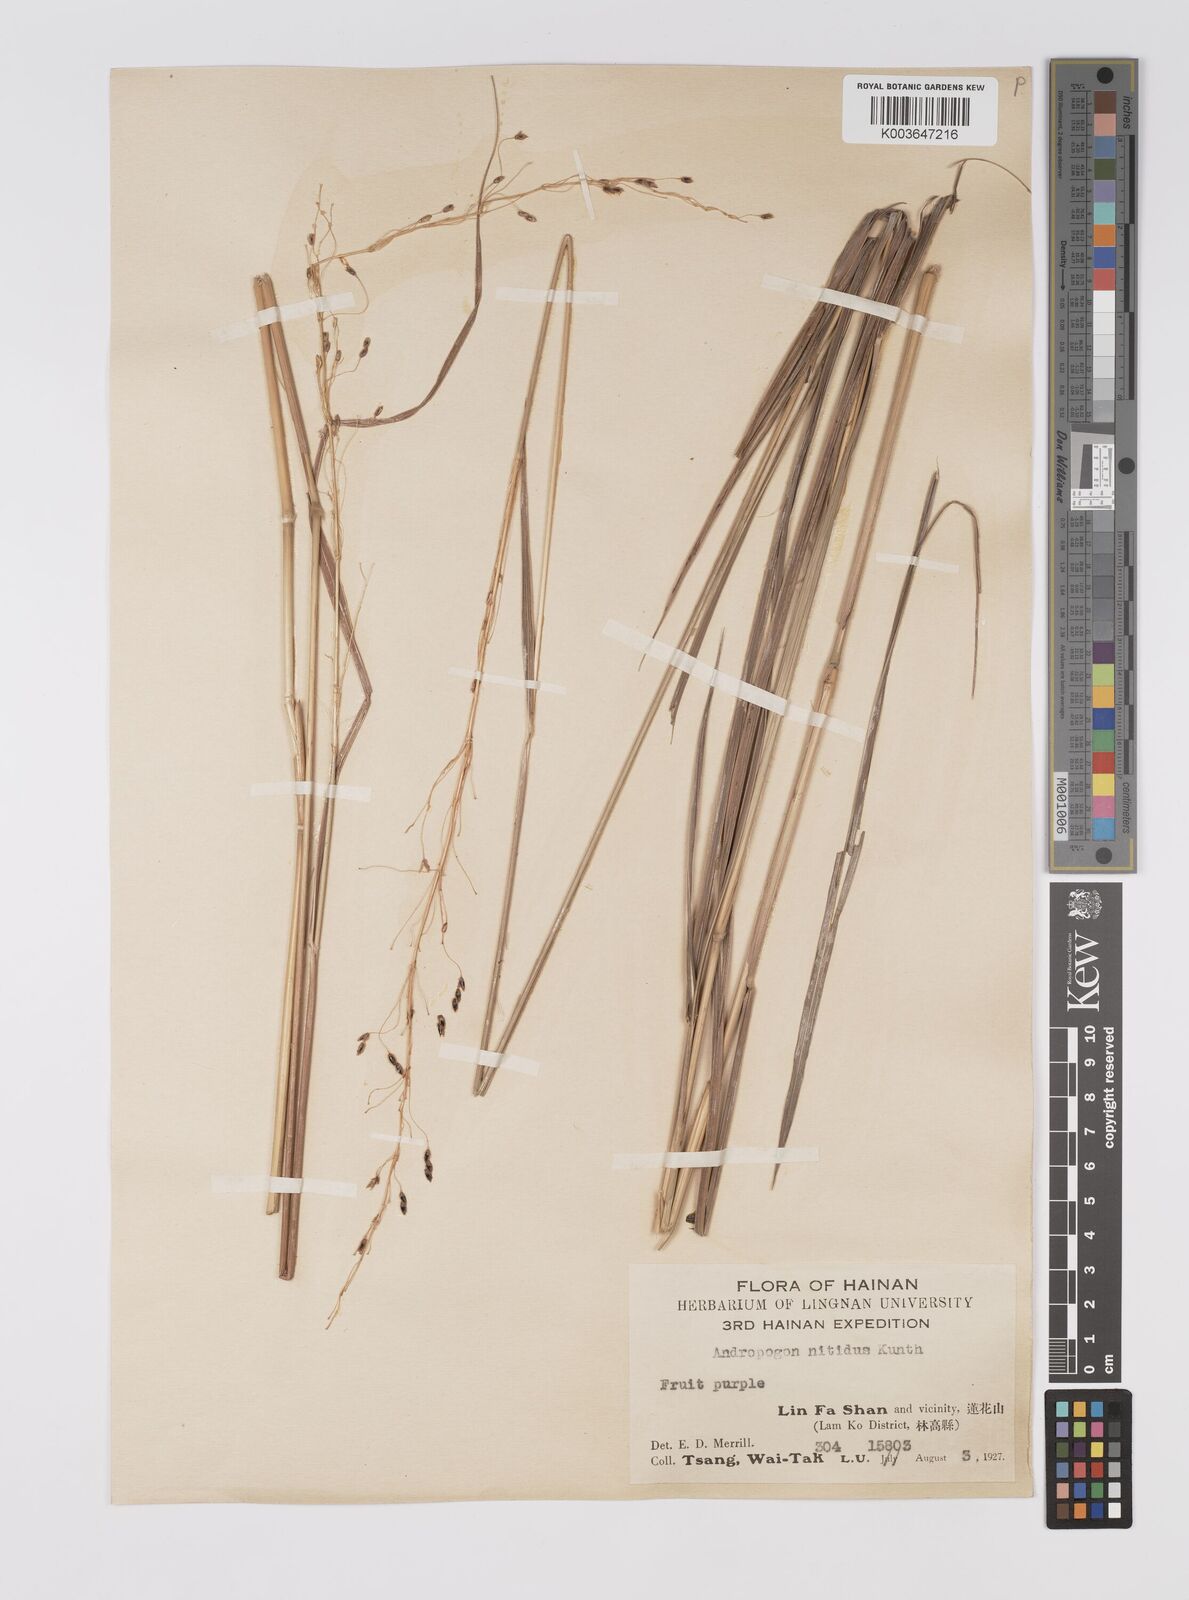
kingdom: Plantae
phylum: Tracheophyta
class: Liliopsida
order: Poales
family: Poaceae
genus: Sorghum
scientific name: Sorghum nitidum
